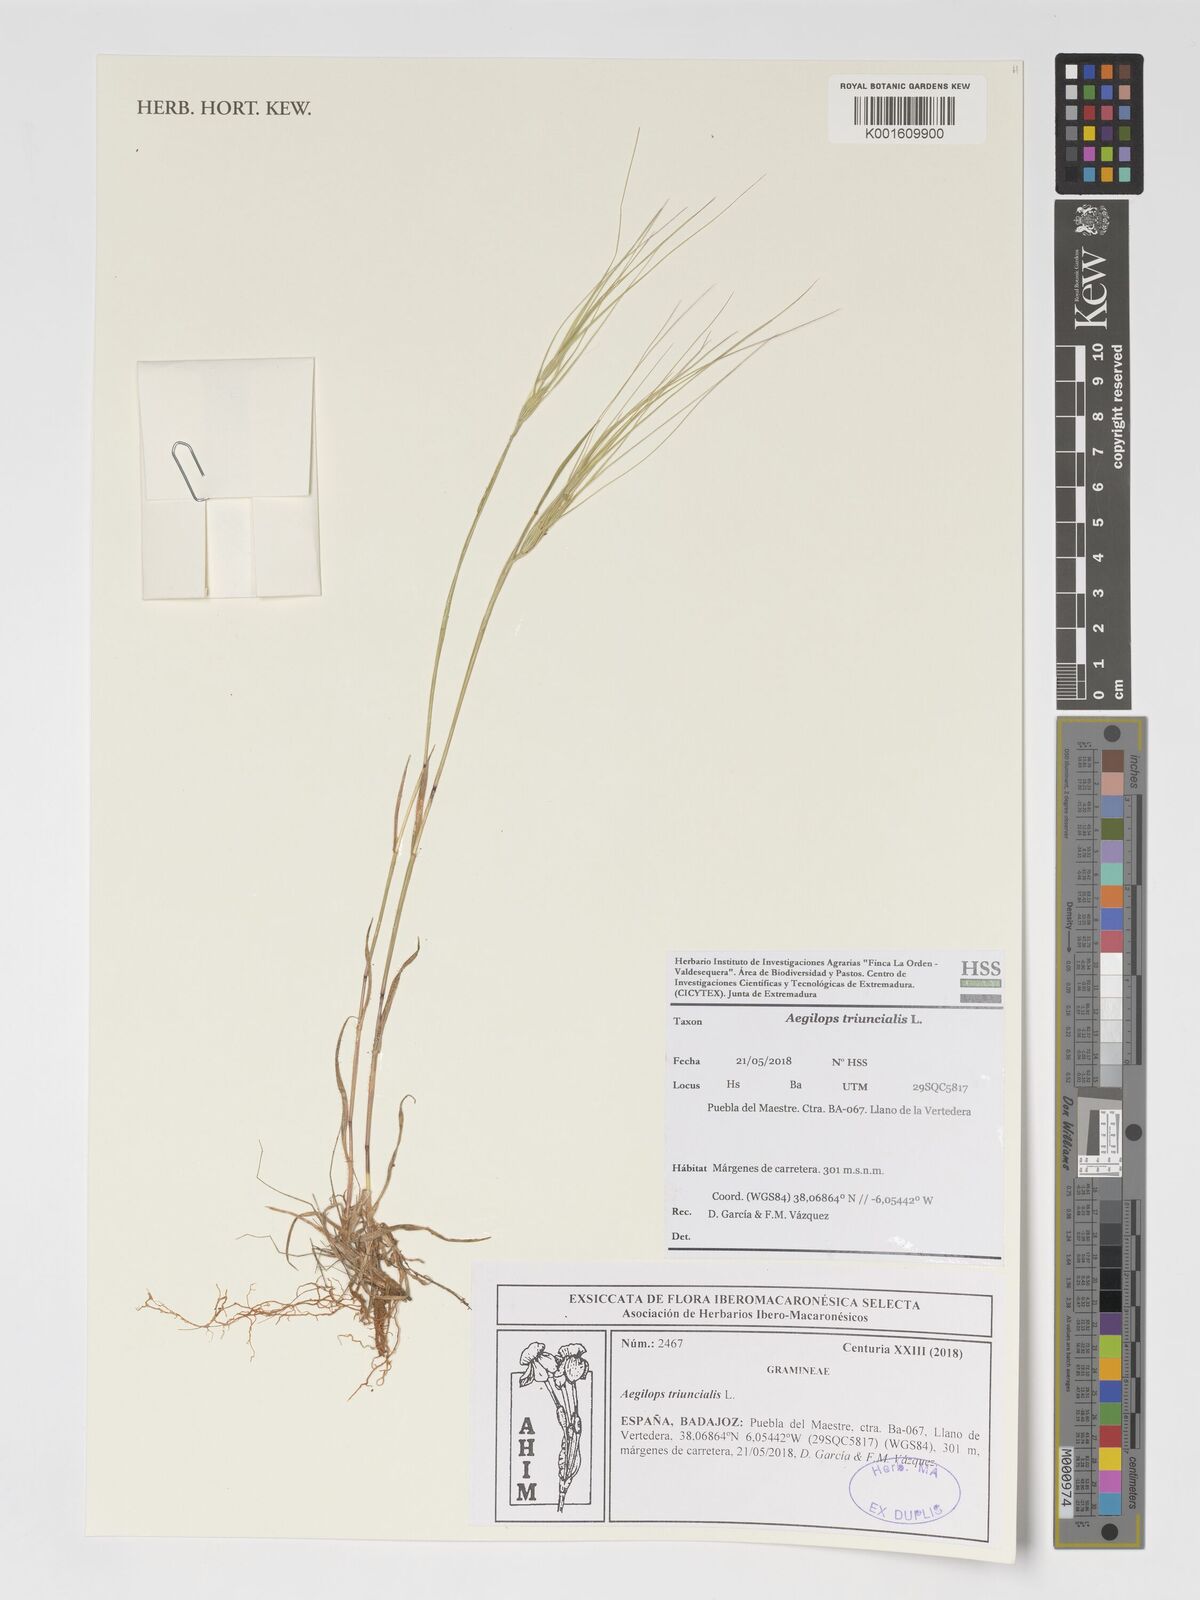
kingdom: Plantae
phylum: Tracheophyta
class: Liliopsida
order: Poales
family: Poaceae
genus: Aegilops
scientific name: Aegilops triuncialis
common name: Barb goat grass
